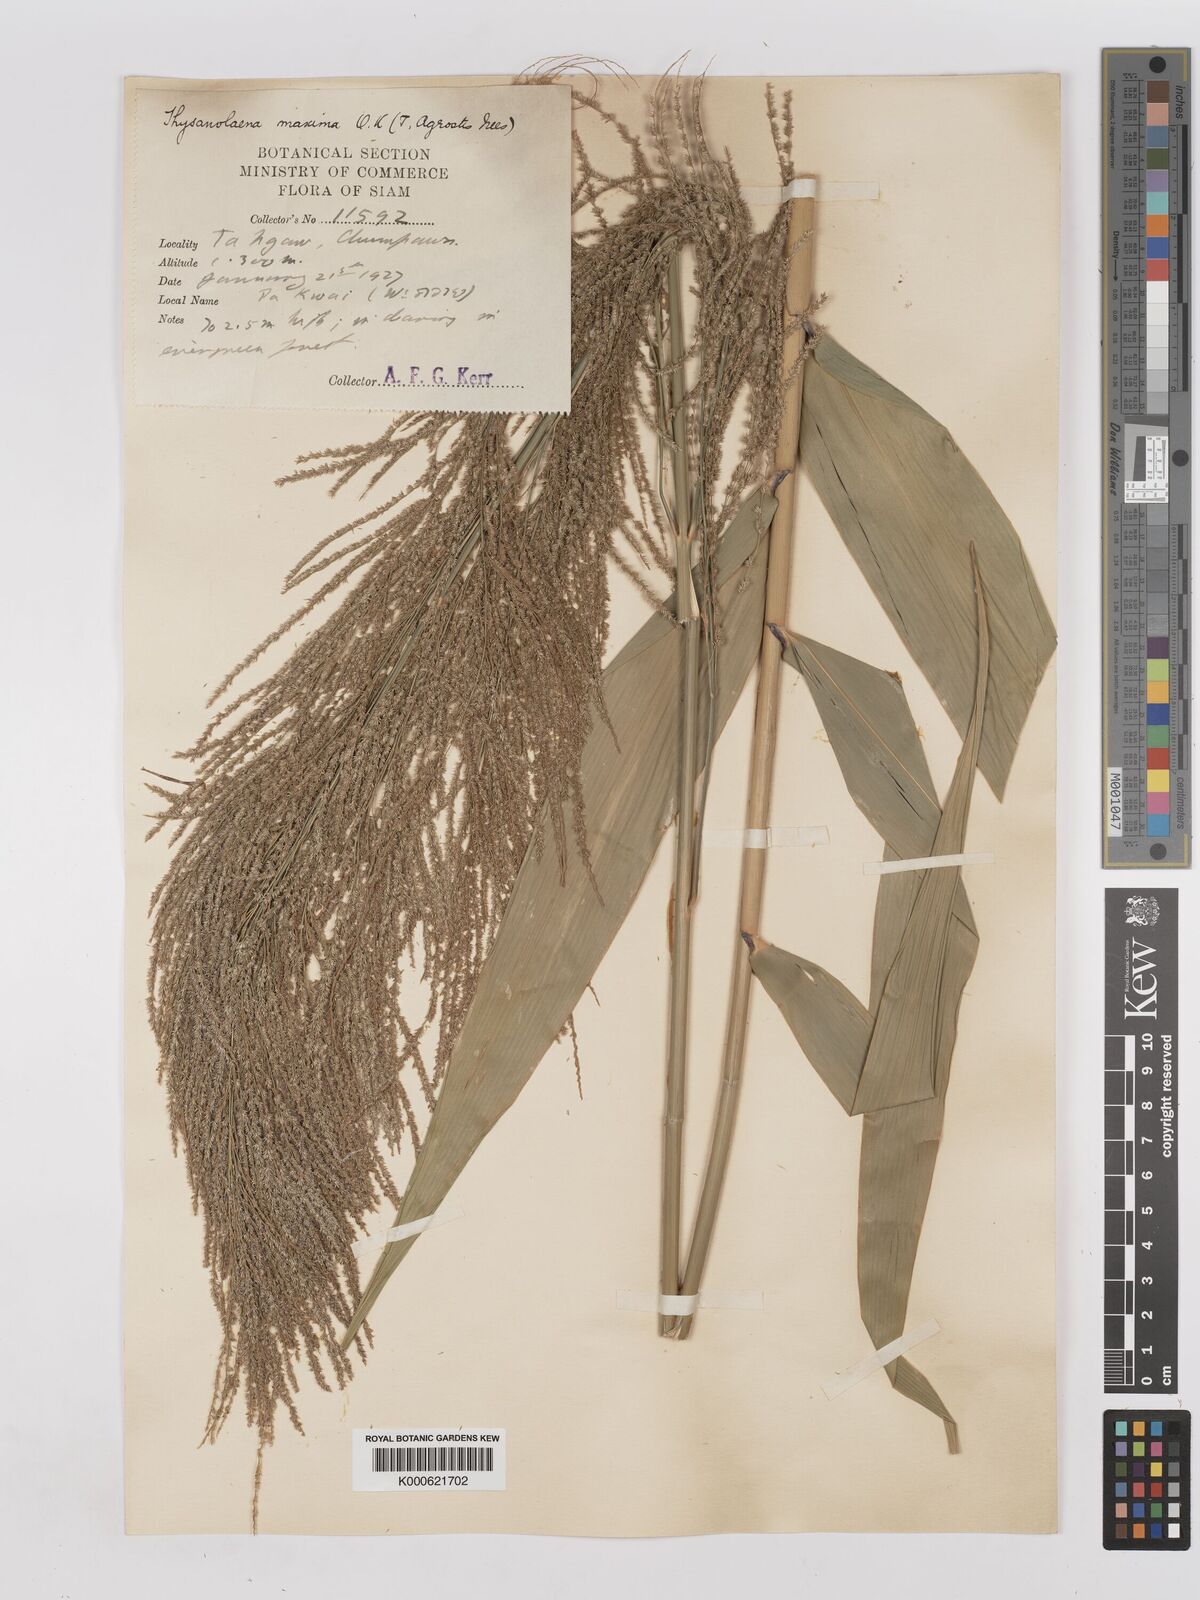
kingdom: Plantae
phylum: Tracheophyta
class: Liliopsida
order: Poales
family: Poaceae
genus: Thysanolaena
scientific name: Thysanolaena latifolia
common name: Tiger grass
